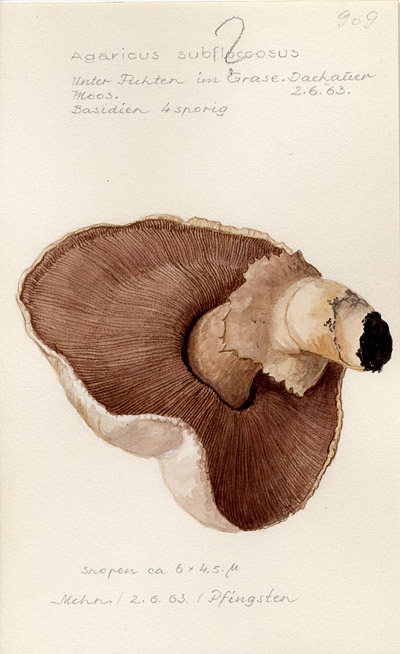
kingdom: Fungi
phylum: Basidiomycota
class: Agaricomycetes
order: Agaricales
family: Agaricaceae
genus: Agaricus
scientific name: Agaricus subfloccosus
